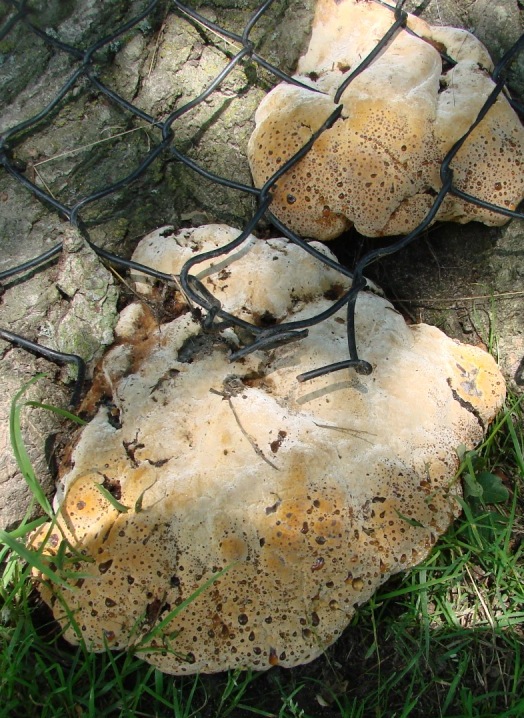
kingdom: Fungi
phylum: Basidiomycota
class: Agaricomycetes
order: Hymenochaetales
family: Hymenochaetaceae
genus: Pseudoinonotus
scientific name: Pseudoinonotus dryadeus
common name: ege-spejlporesvamp
